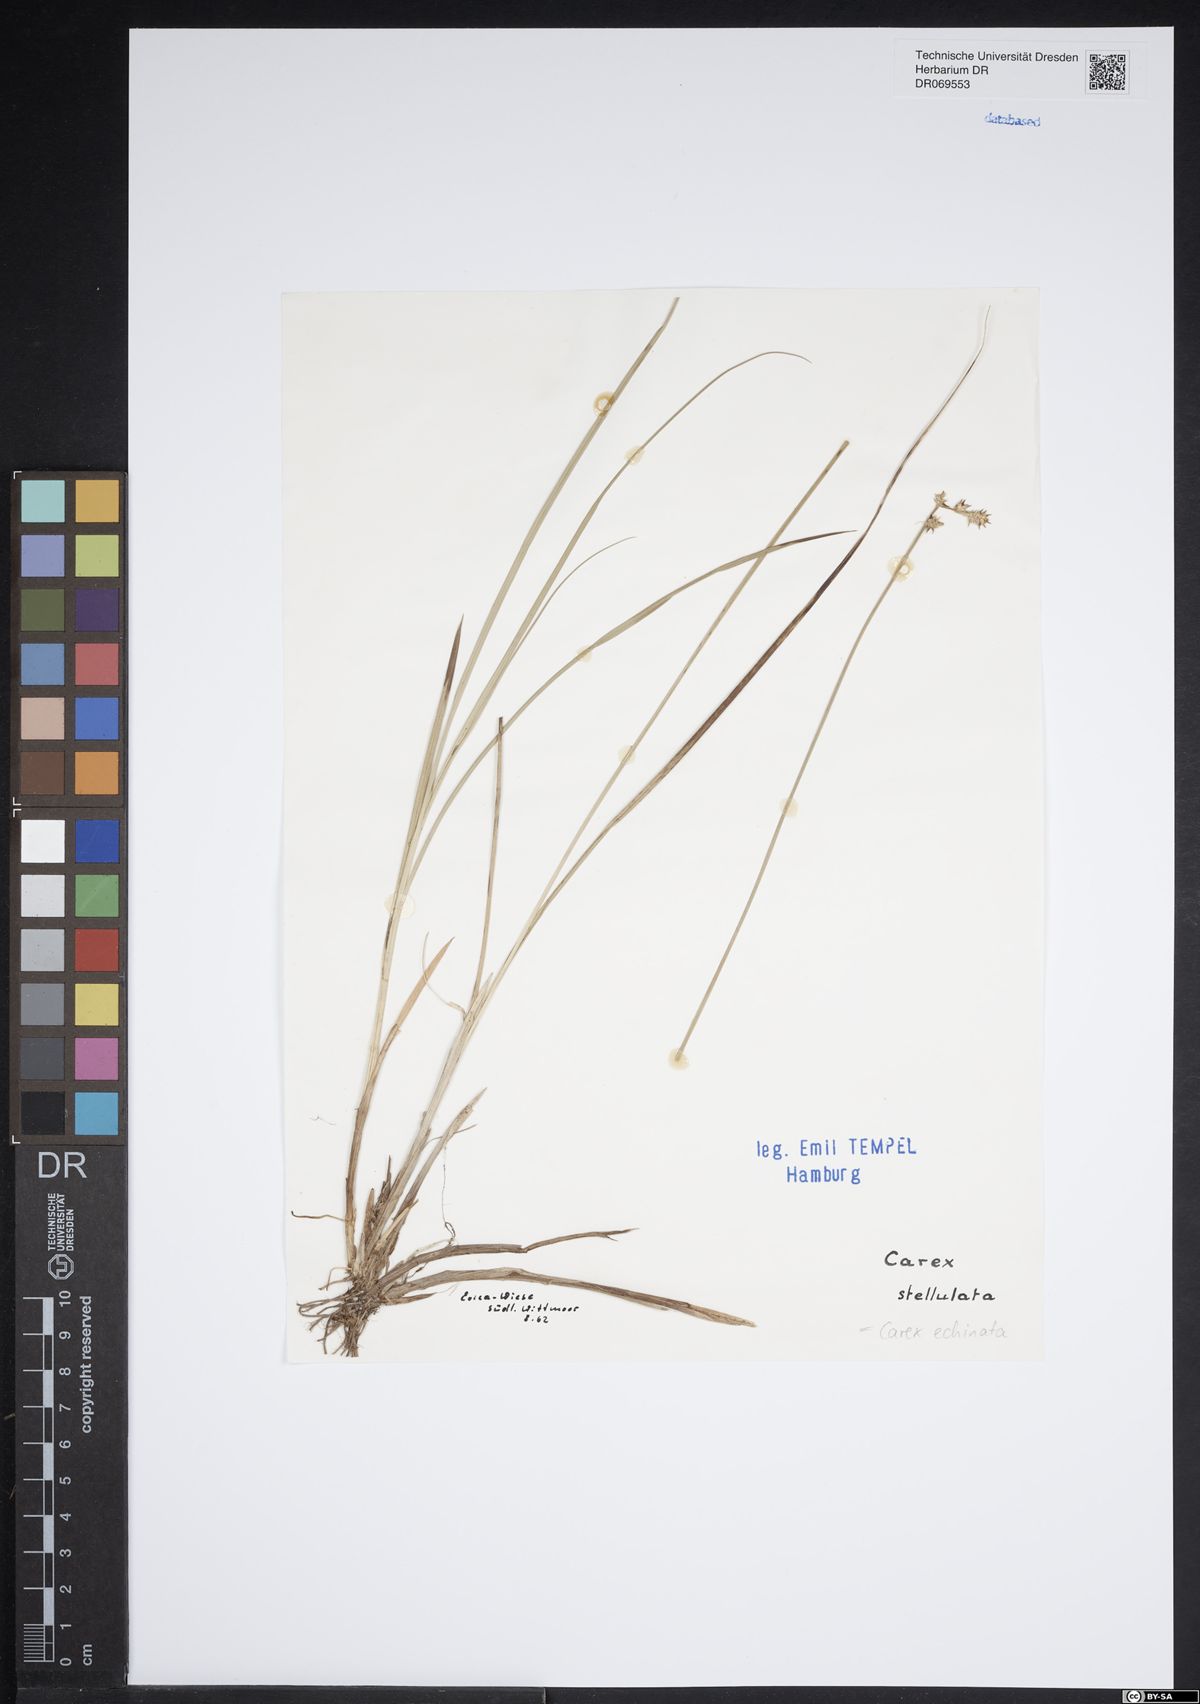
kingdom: Plantae
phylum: Tracheophyta
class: Liliopsida
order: Poales
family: Cyperaceae
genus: Carex
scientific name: Carex echinata
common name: Star sedge
